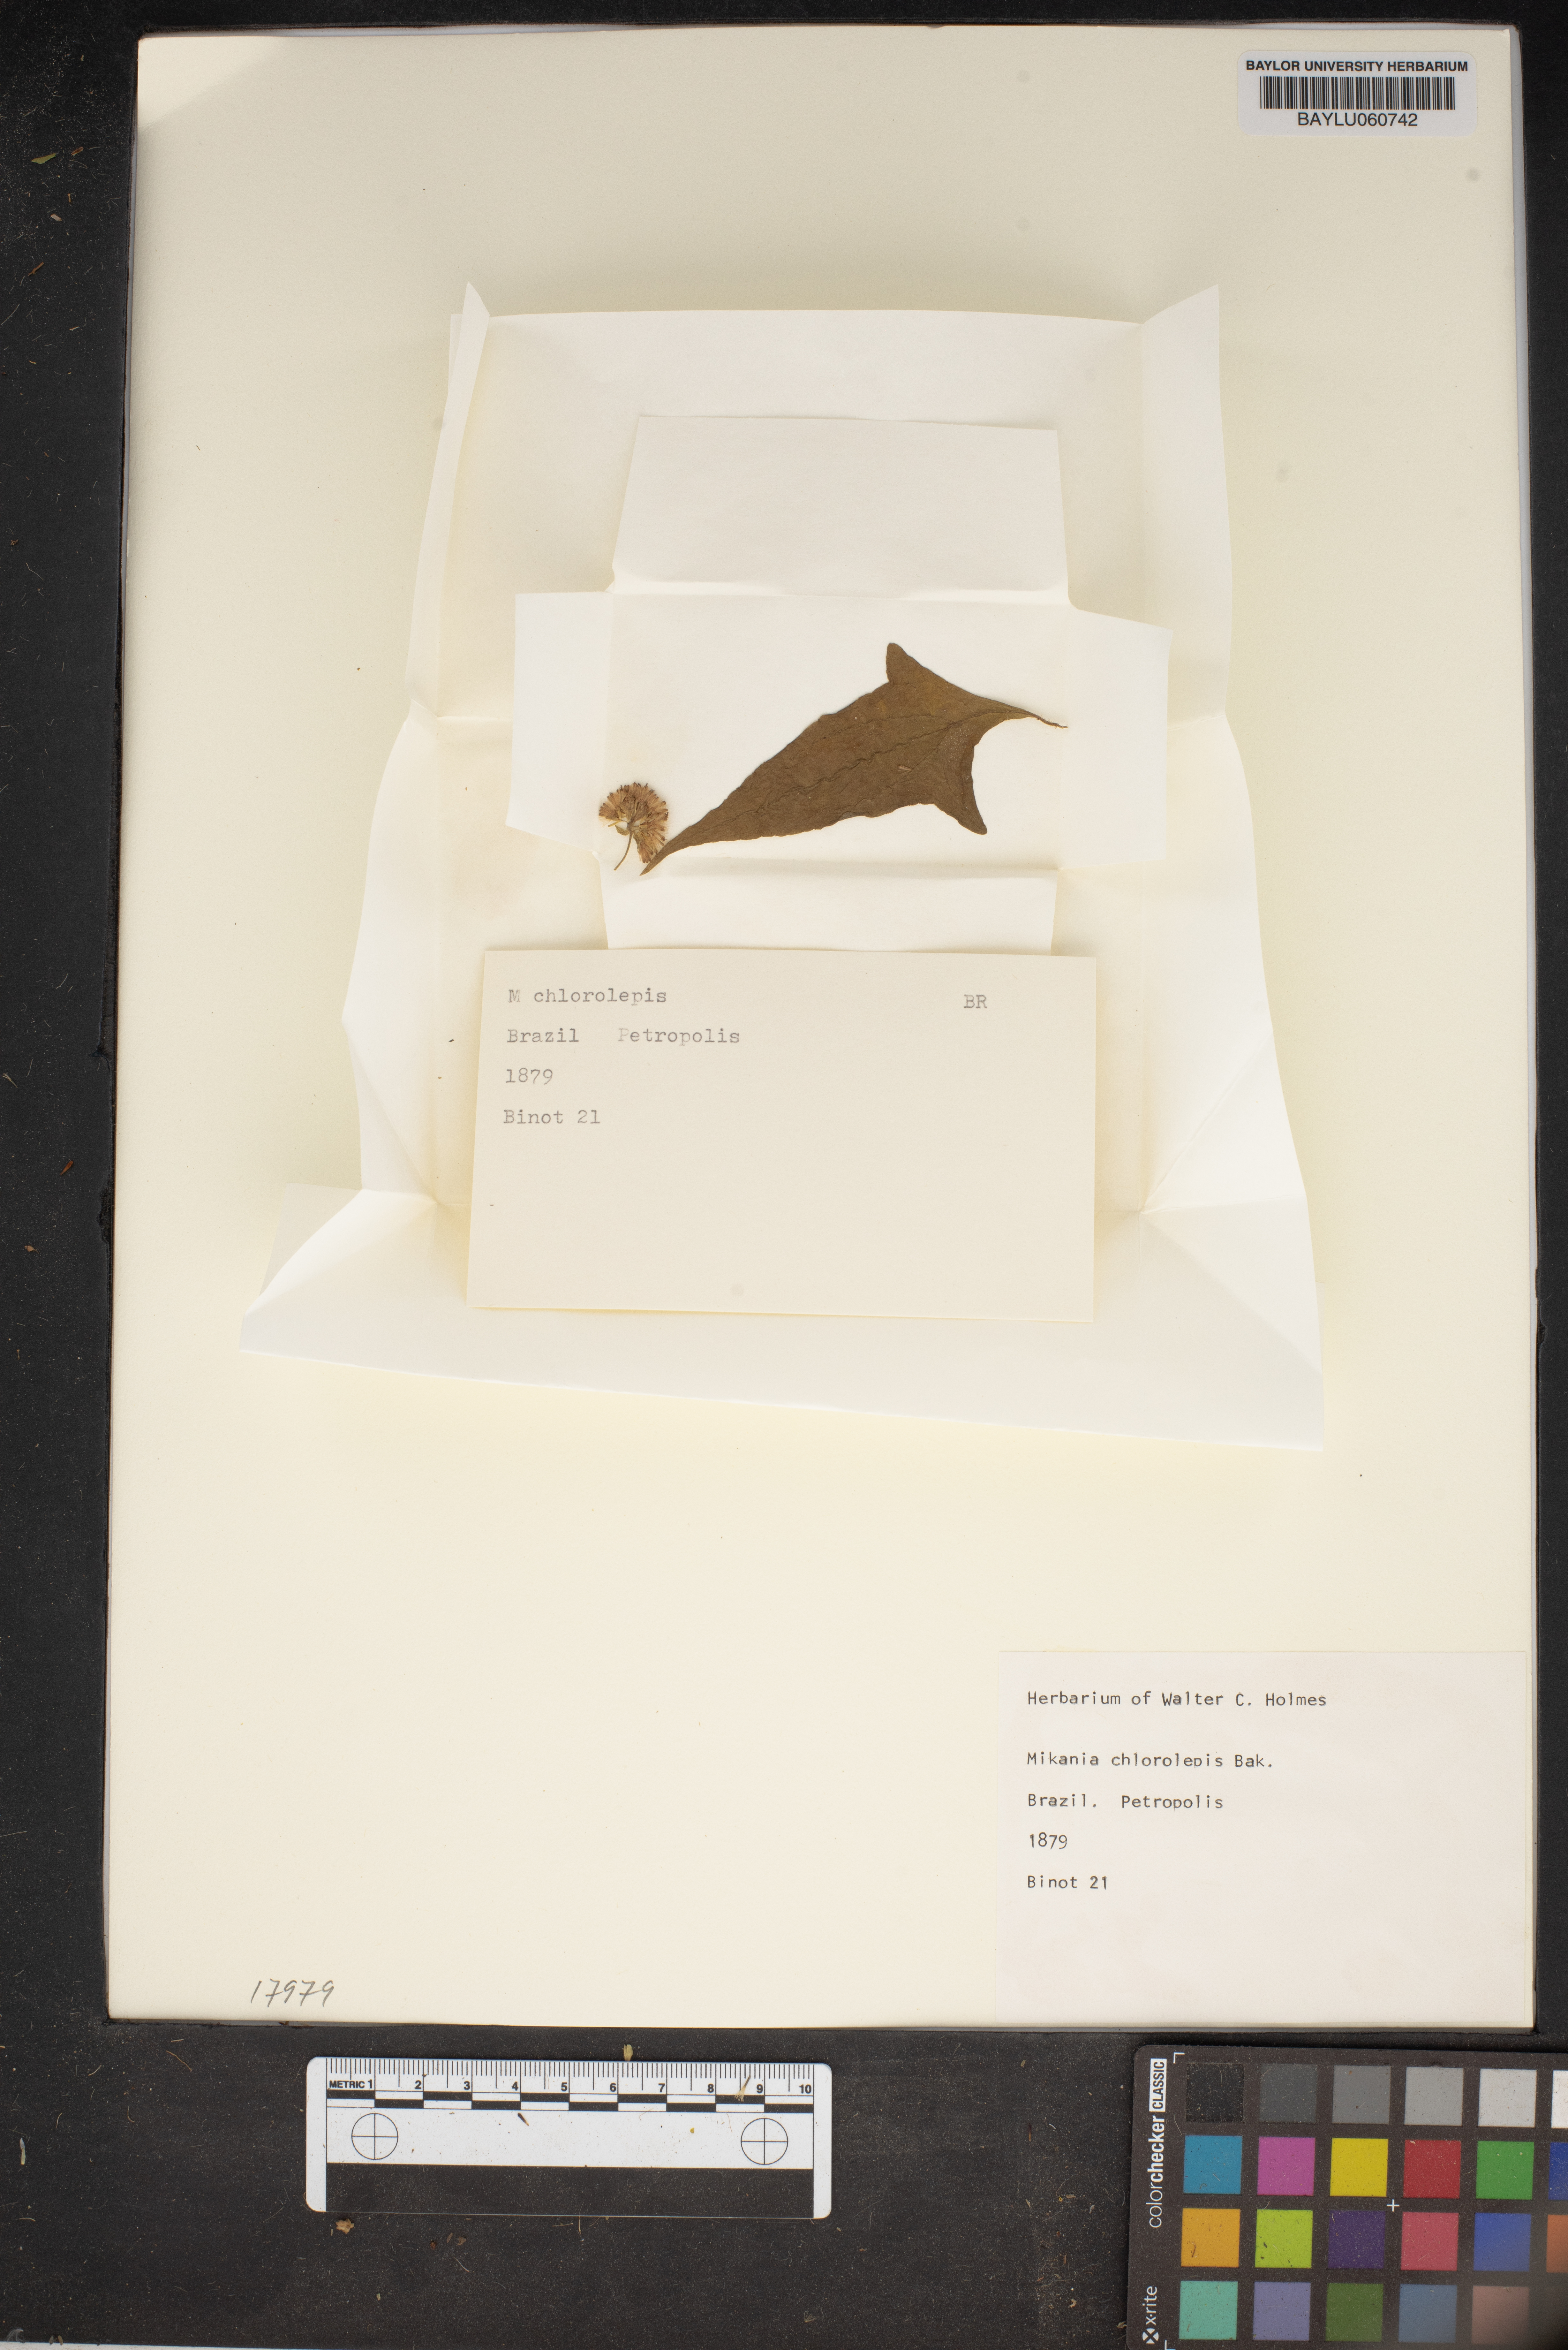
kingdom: Plantae
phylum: Tracheophyta
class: Magnoliopsida
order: Asterales
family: Asteraceae
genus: Mikania
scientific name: Mikania chlorolepis
